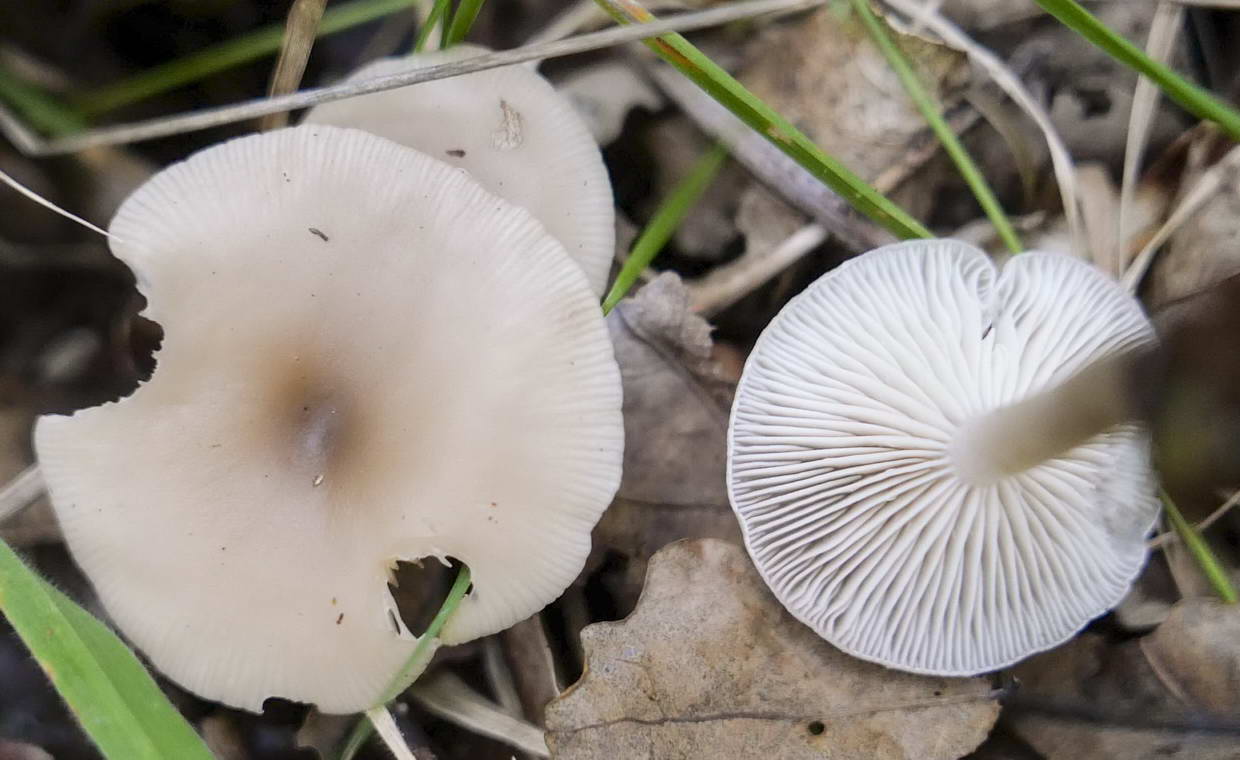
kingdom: Fungi
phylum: Basidiomycota
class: Agaricomycetes
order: Agaricales
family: Tricholomataceae
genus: Clitocybe
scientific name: Clitocybe vibecina
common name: randstribet tragthat
